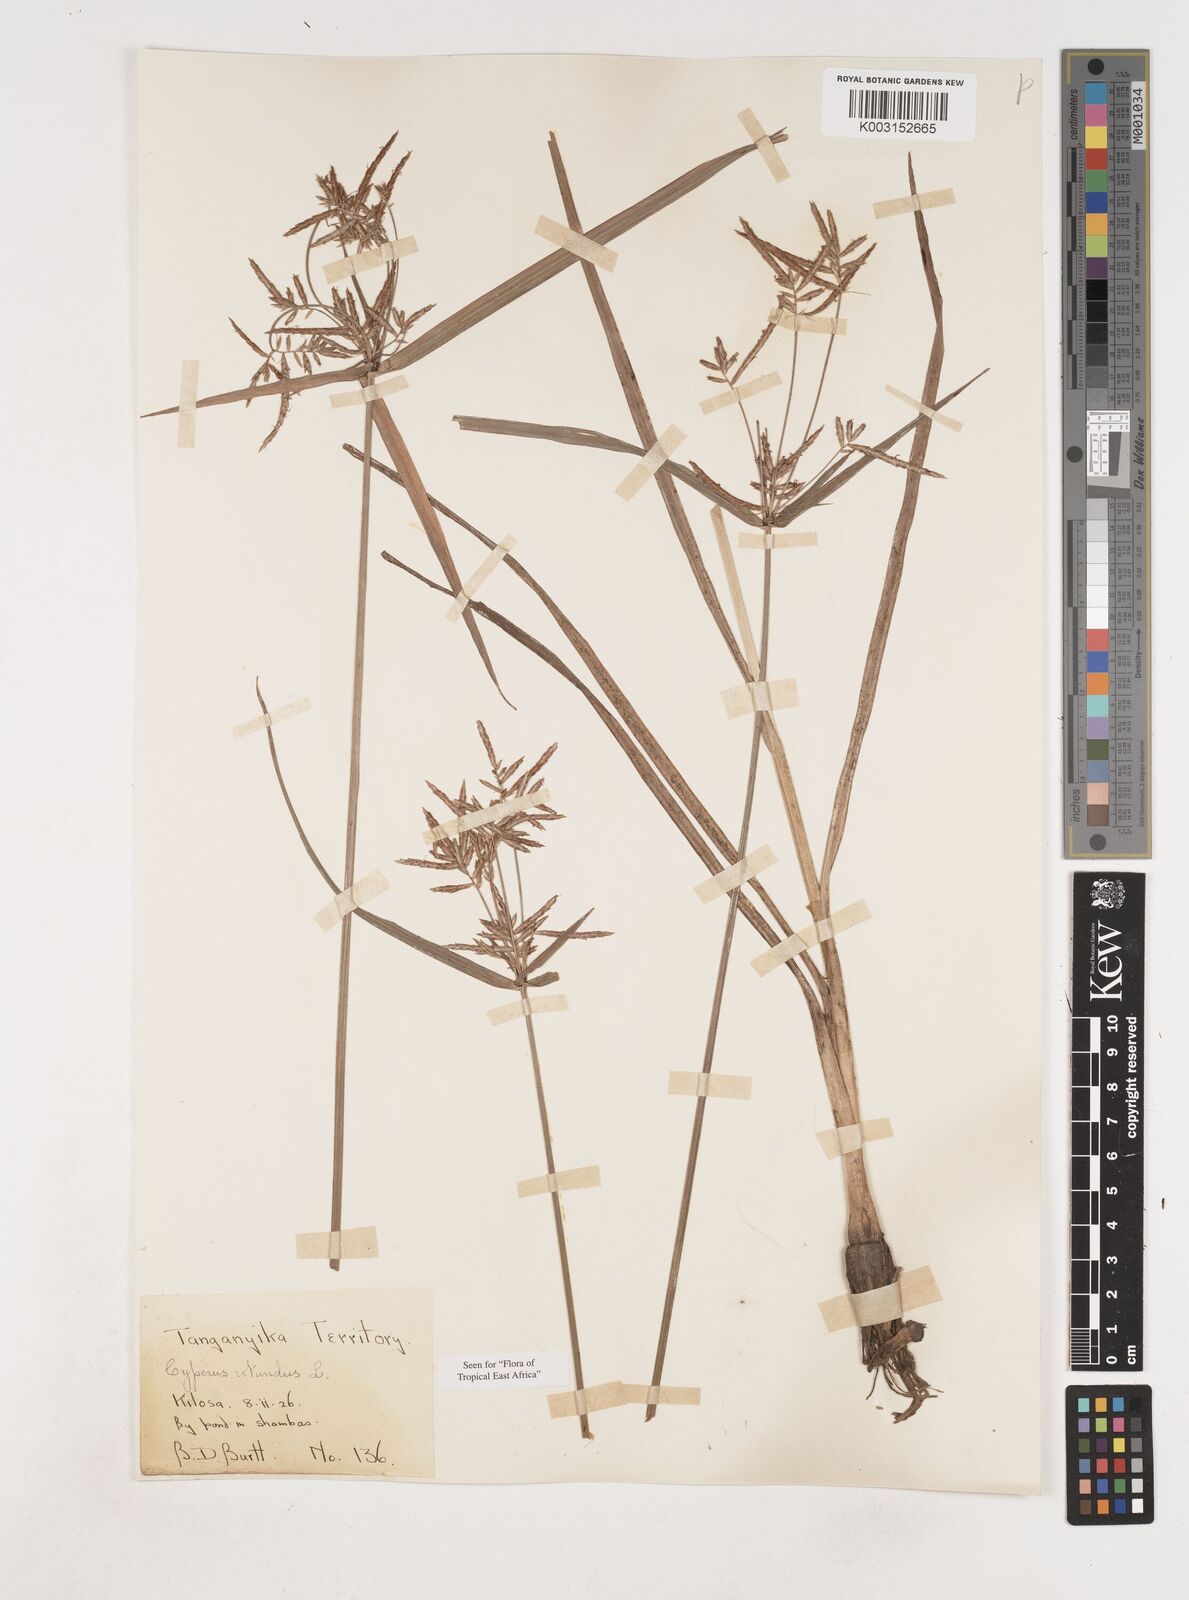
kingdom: Plantae
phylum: Tracheophyta
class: Liliopsida
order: Poales
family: Cyperaceae
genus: Cyperus
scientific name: Cyperus rotundus
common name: Nutgrass
